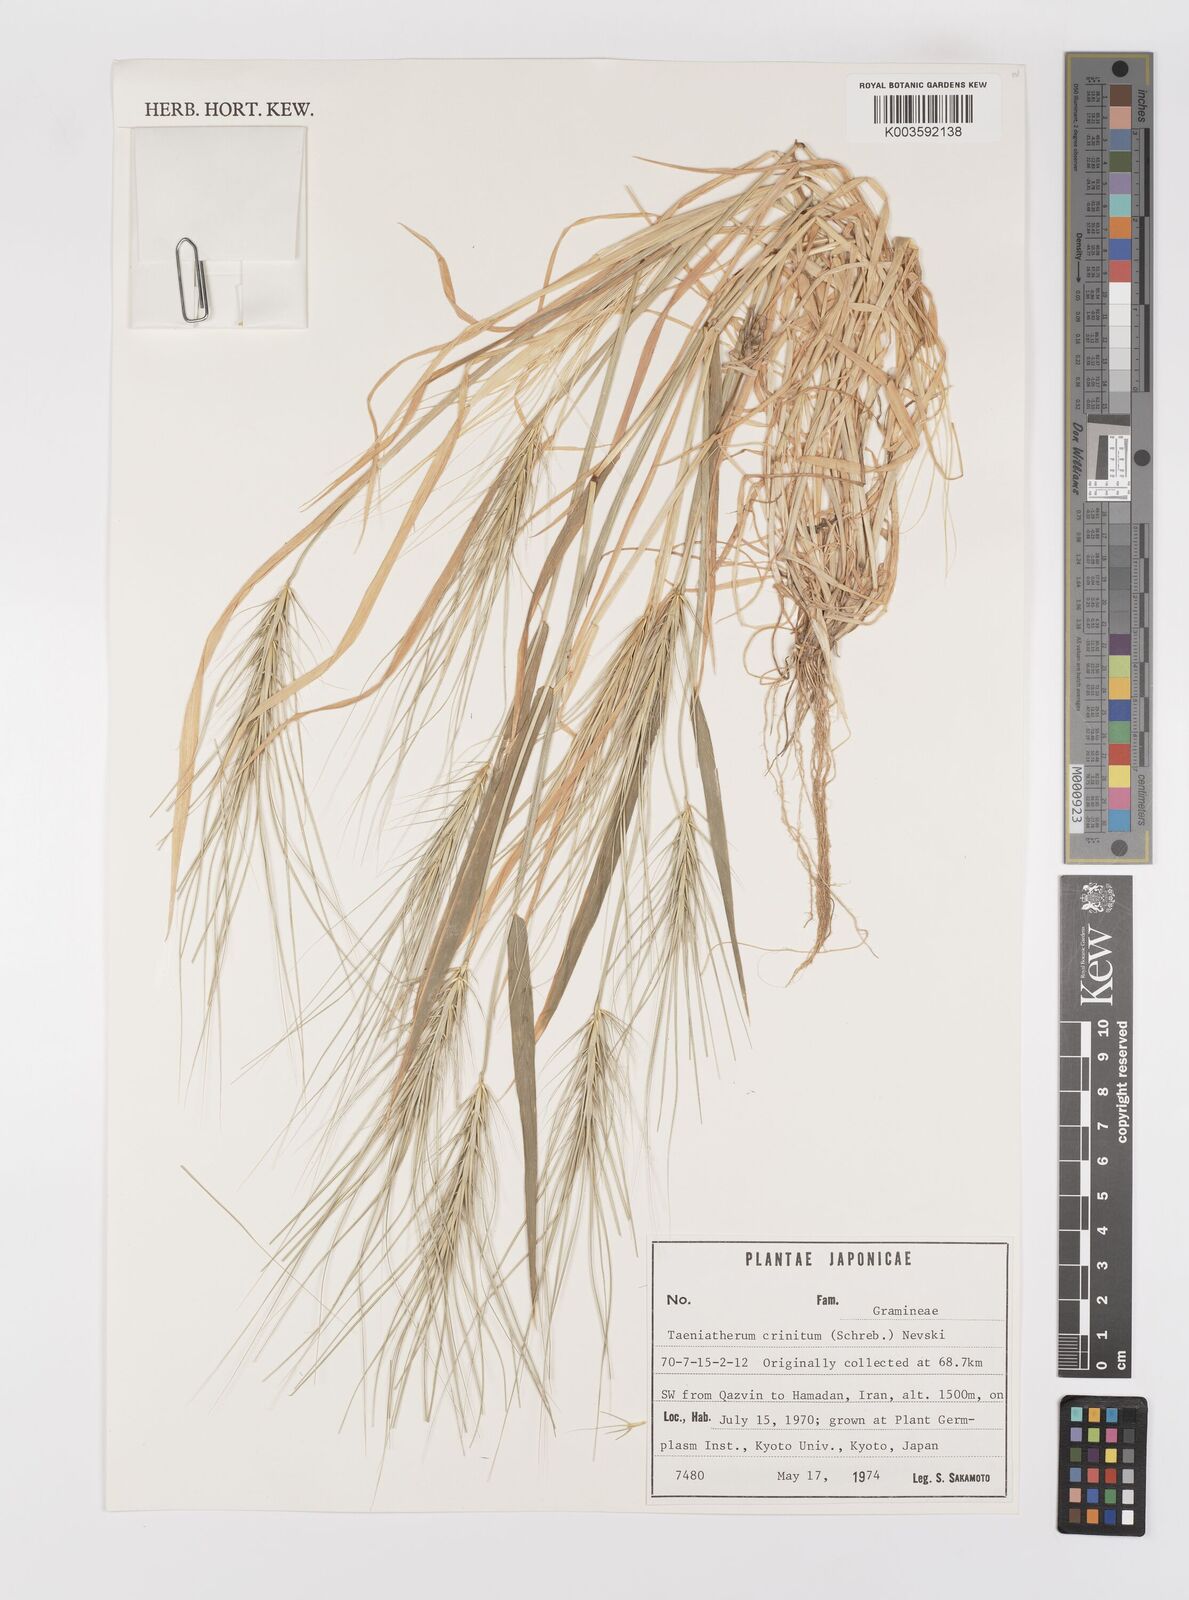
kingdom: Plantae
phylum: Tracheophyta
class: Liliopsida
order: Poales
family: Poaceae
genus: Taeniatherum
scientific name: Taeniatherum caput-medusae
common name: Medusahead
